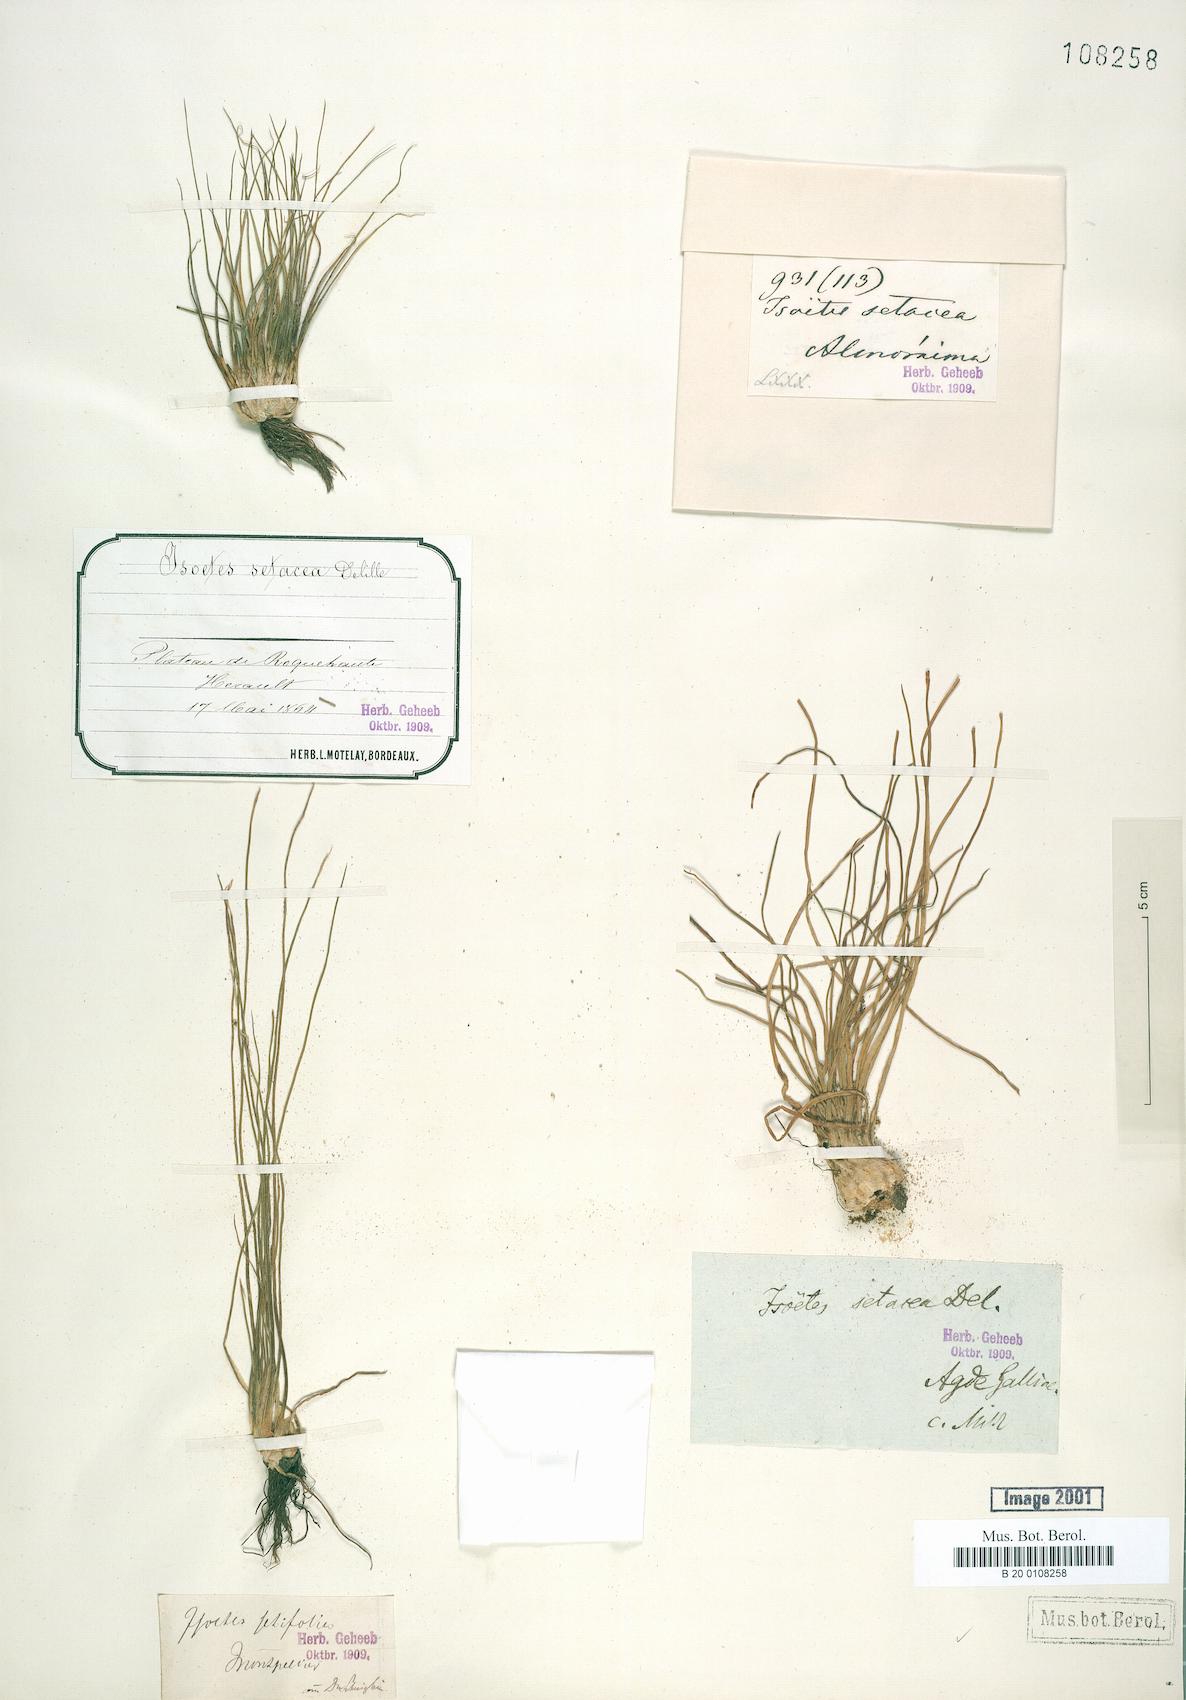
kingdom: Plantae
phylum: Tracheophyta
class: Lycopodiopsida
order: Isoetales
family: Isoetaceae
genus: Isoetes
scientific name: Isoetes lacustris
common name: Common quillwort
